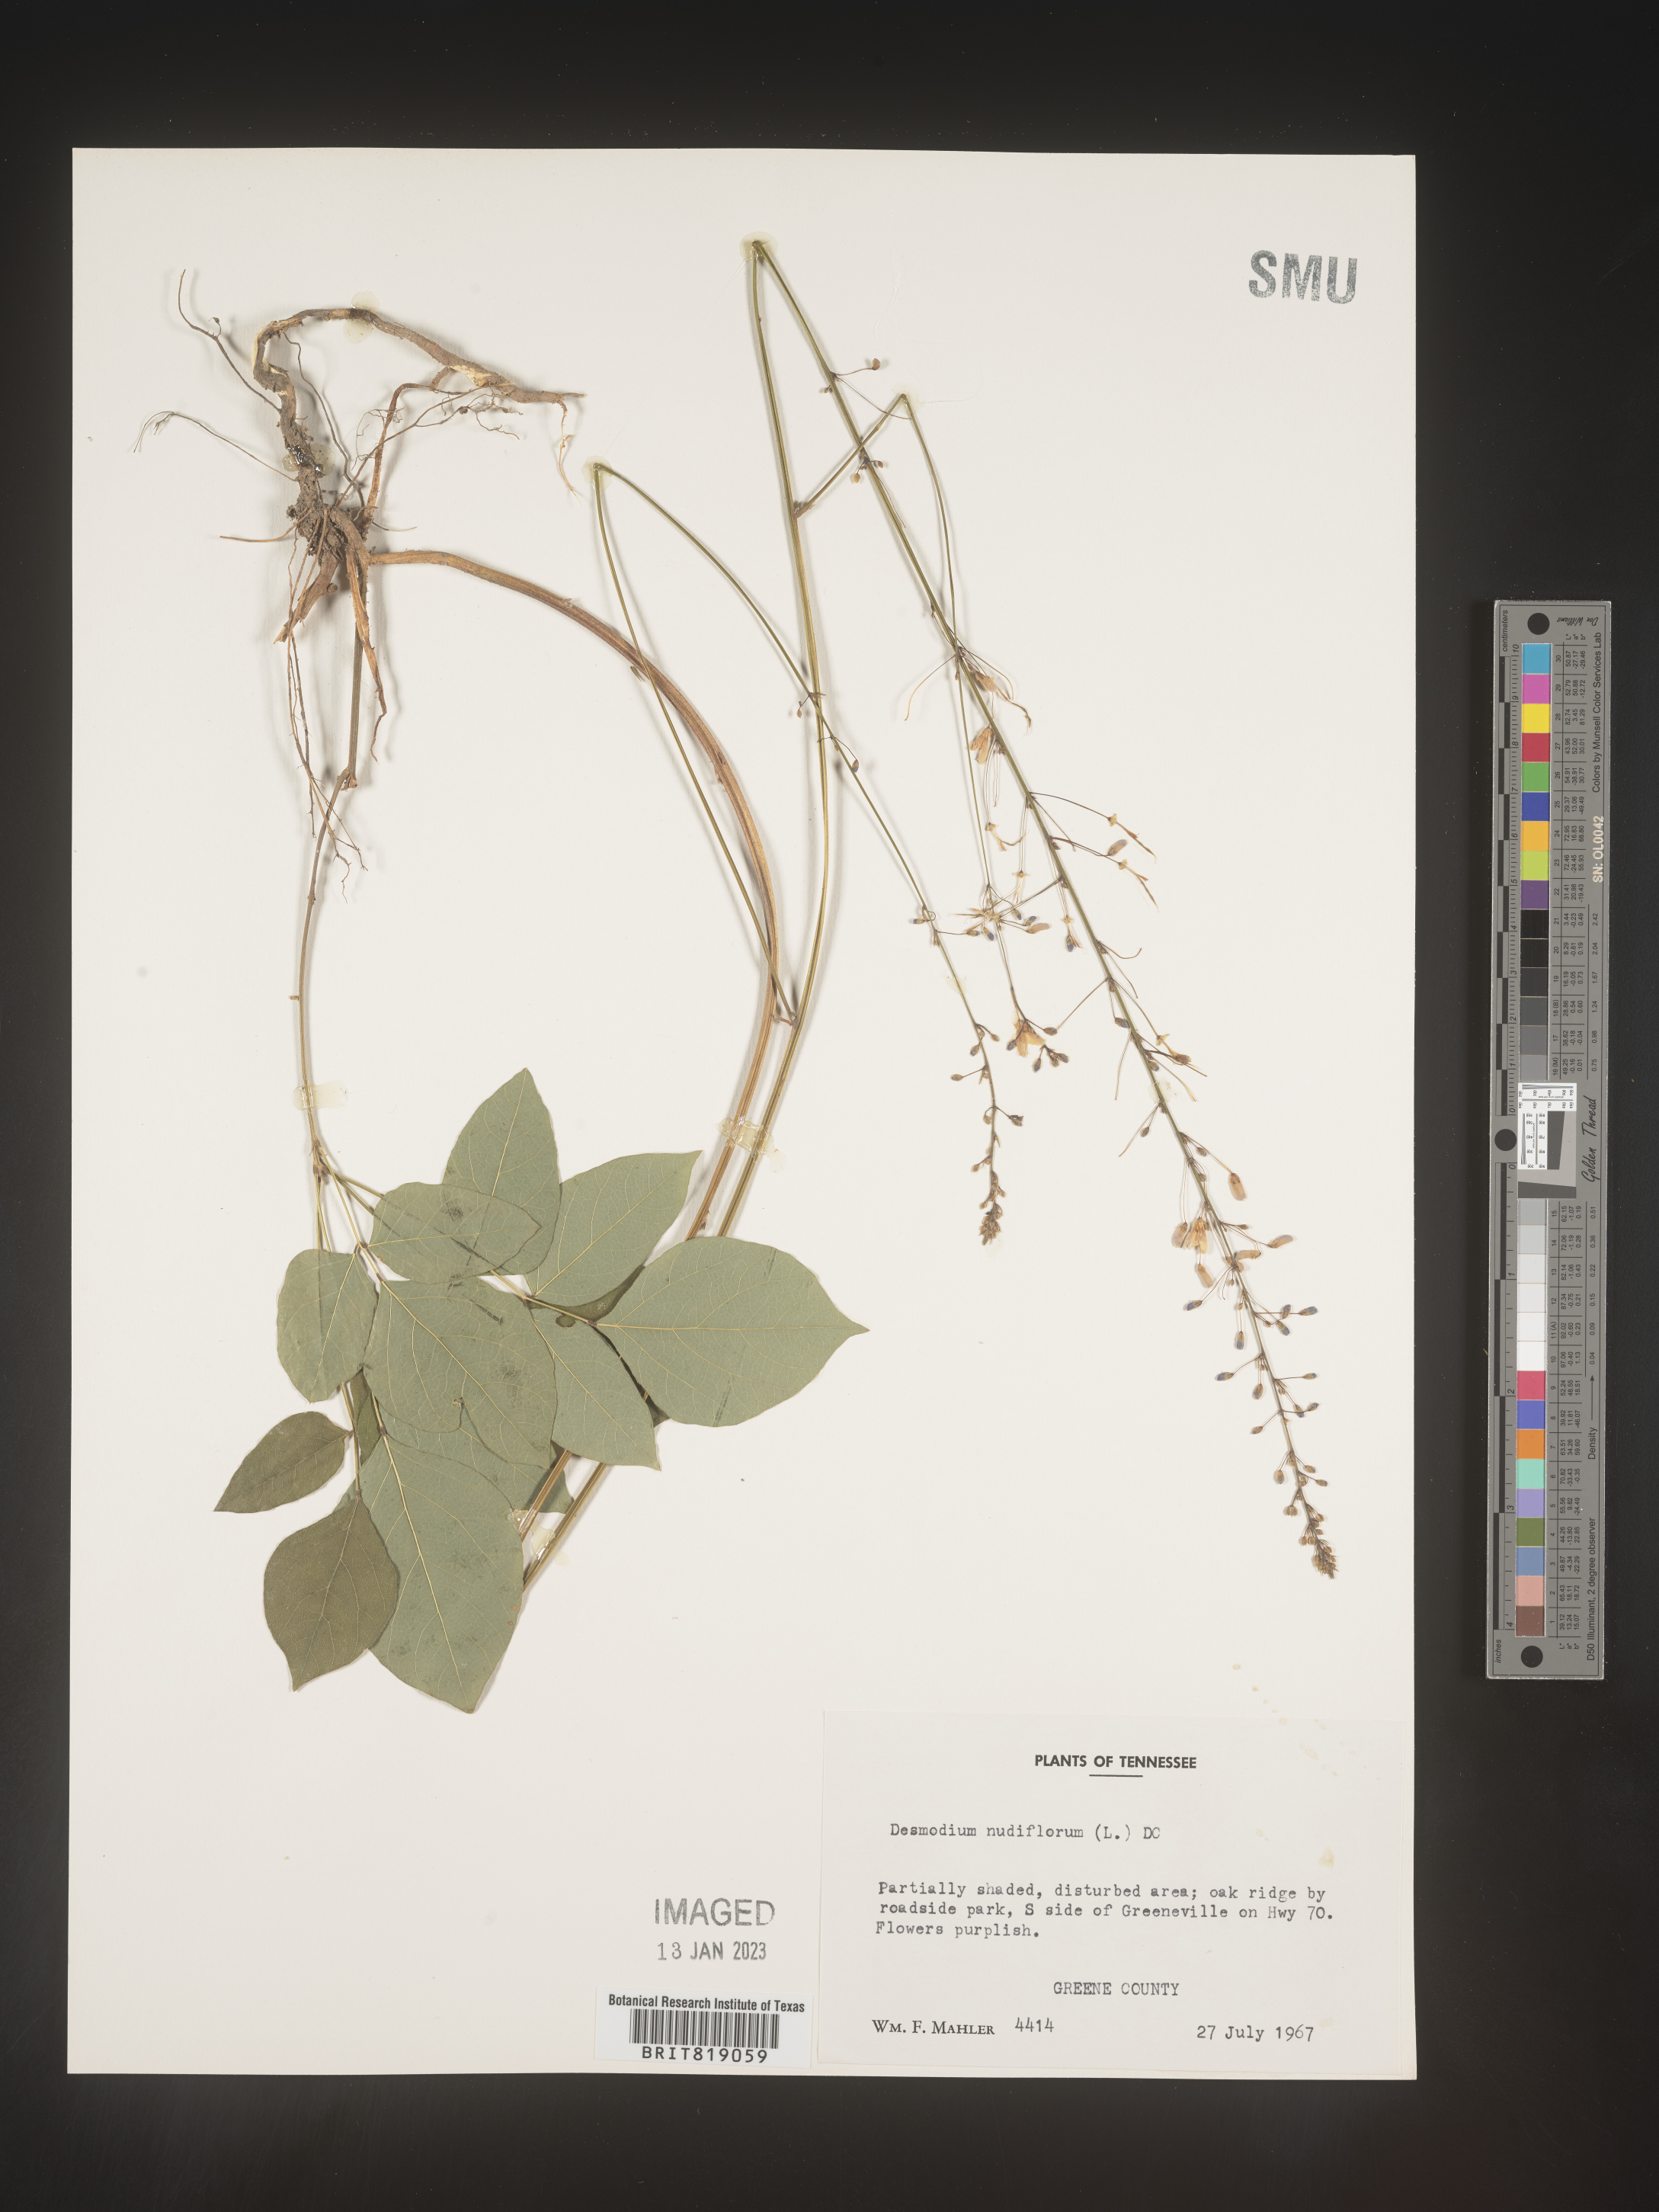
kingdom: Plantae
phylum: Tracheophyta
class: Magnoliopsida
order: Fabales
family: Fabaceae
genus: Hylodesmum
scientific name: Hylodesmum nudiflorum
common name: Bare-stemmed tick-trefoil
